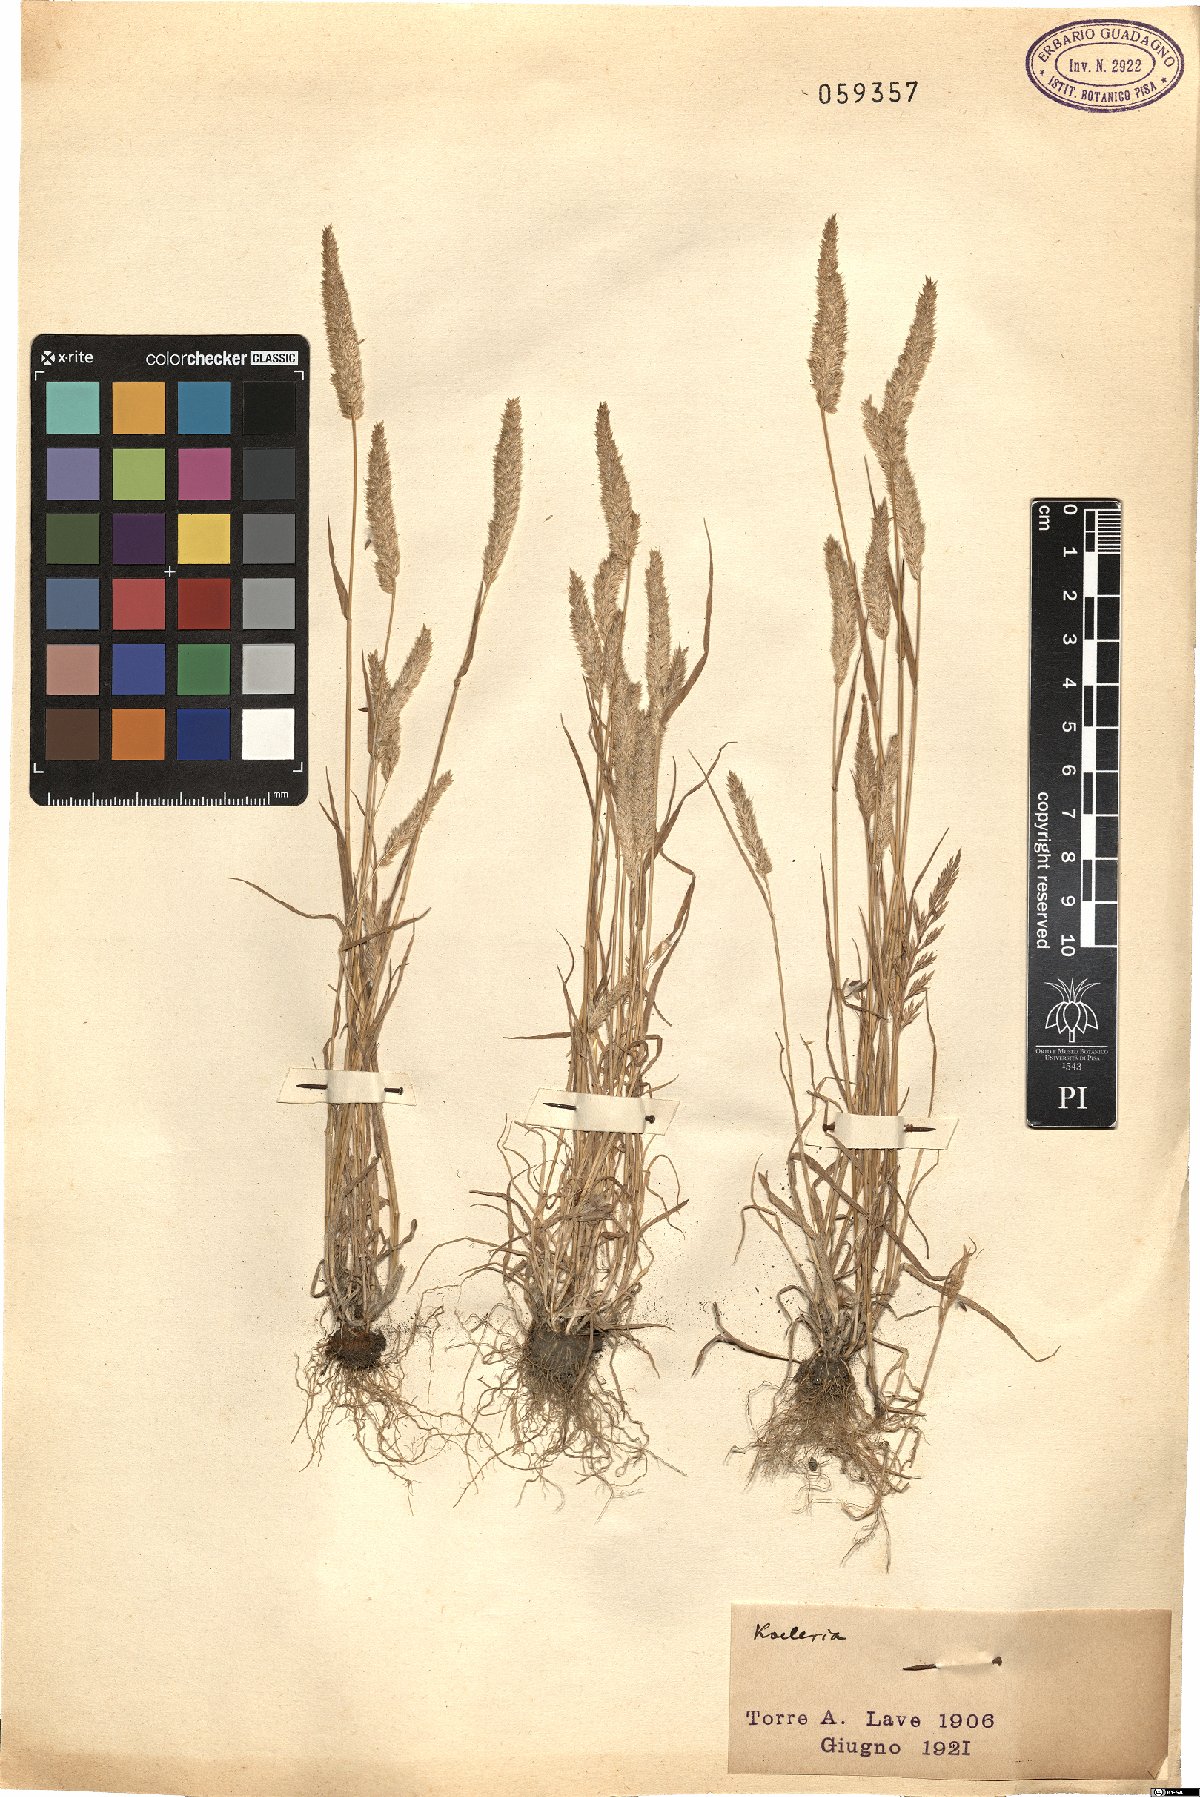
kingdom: Plantae
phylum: Tracheophyta
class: Liliopsida
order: Poales
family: Poaceae
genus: Koeleria
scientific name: Koeleria
